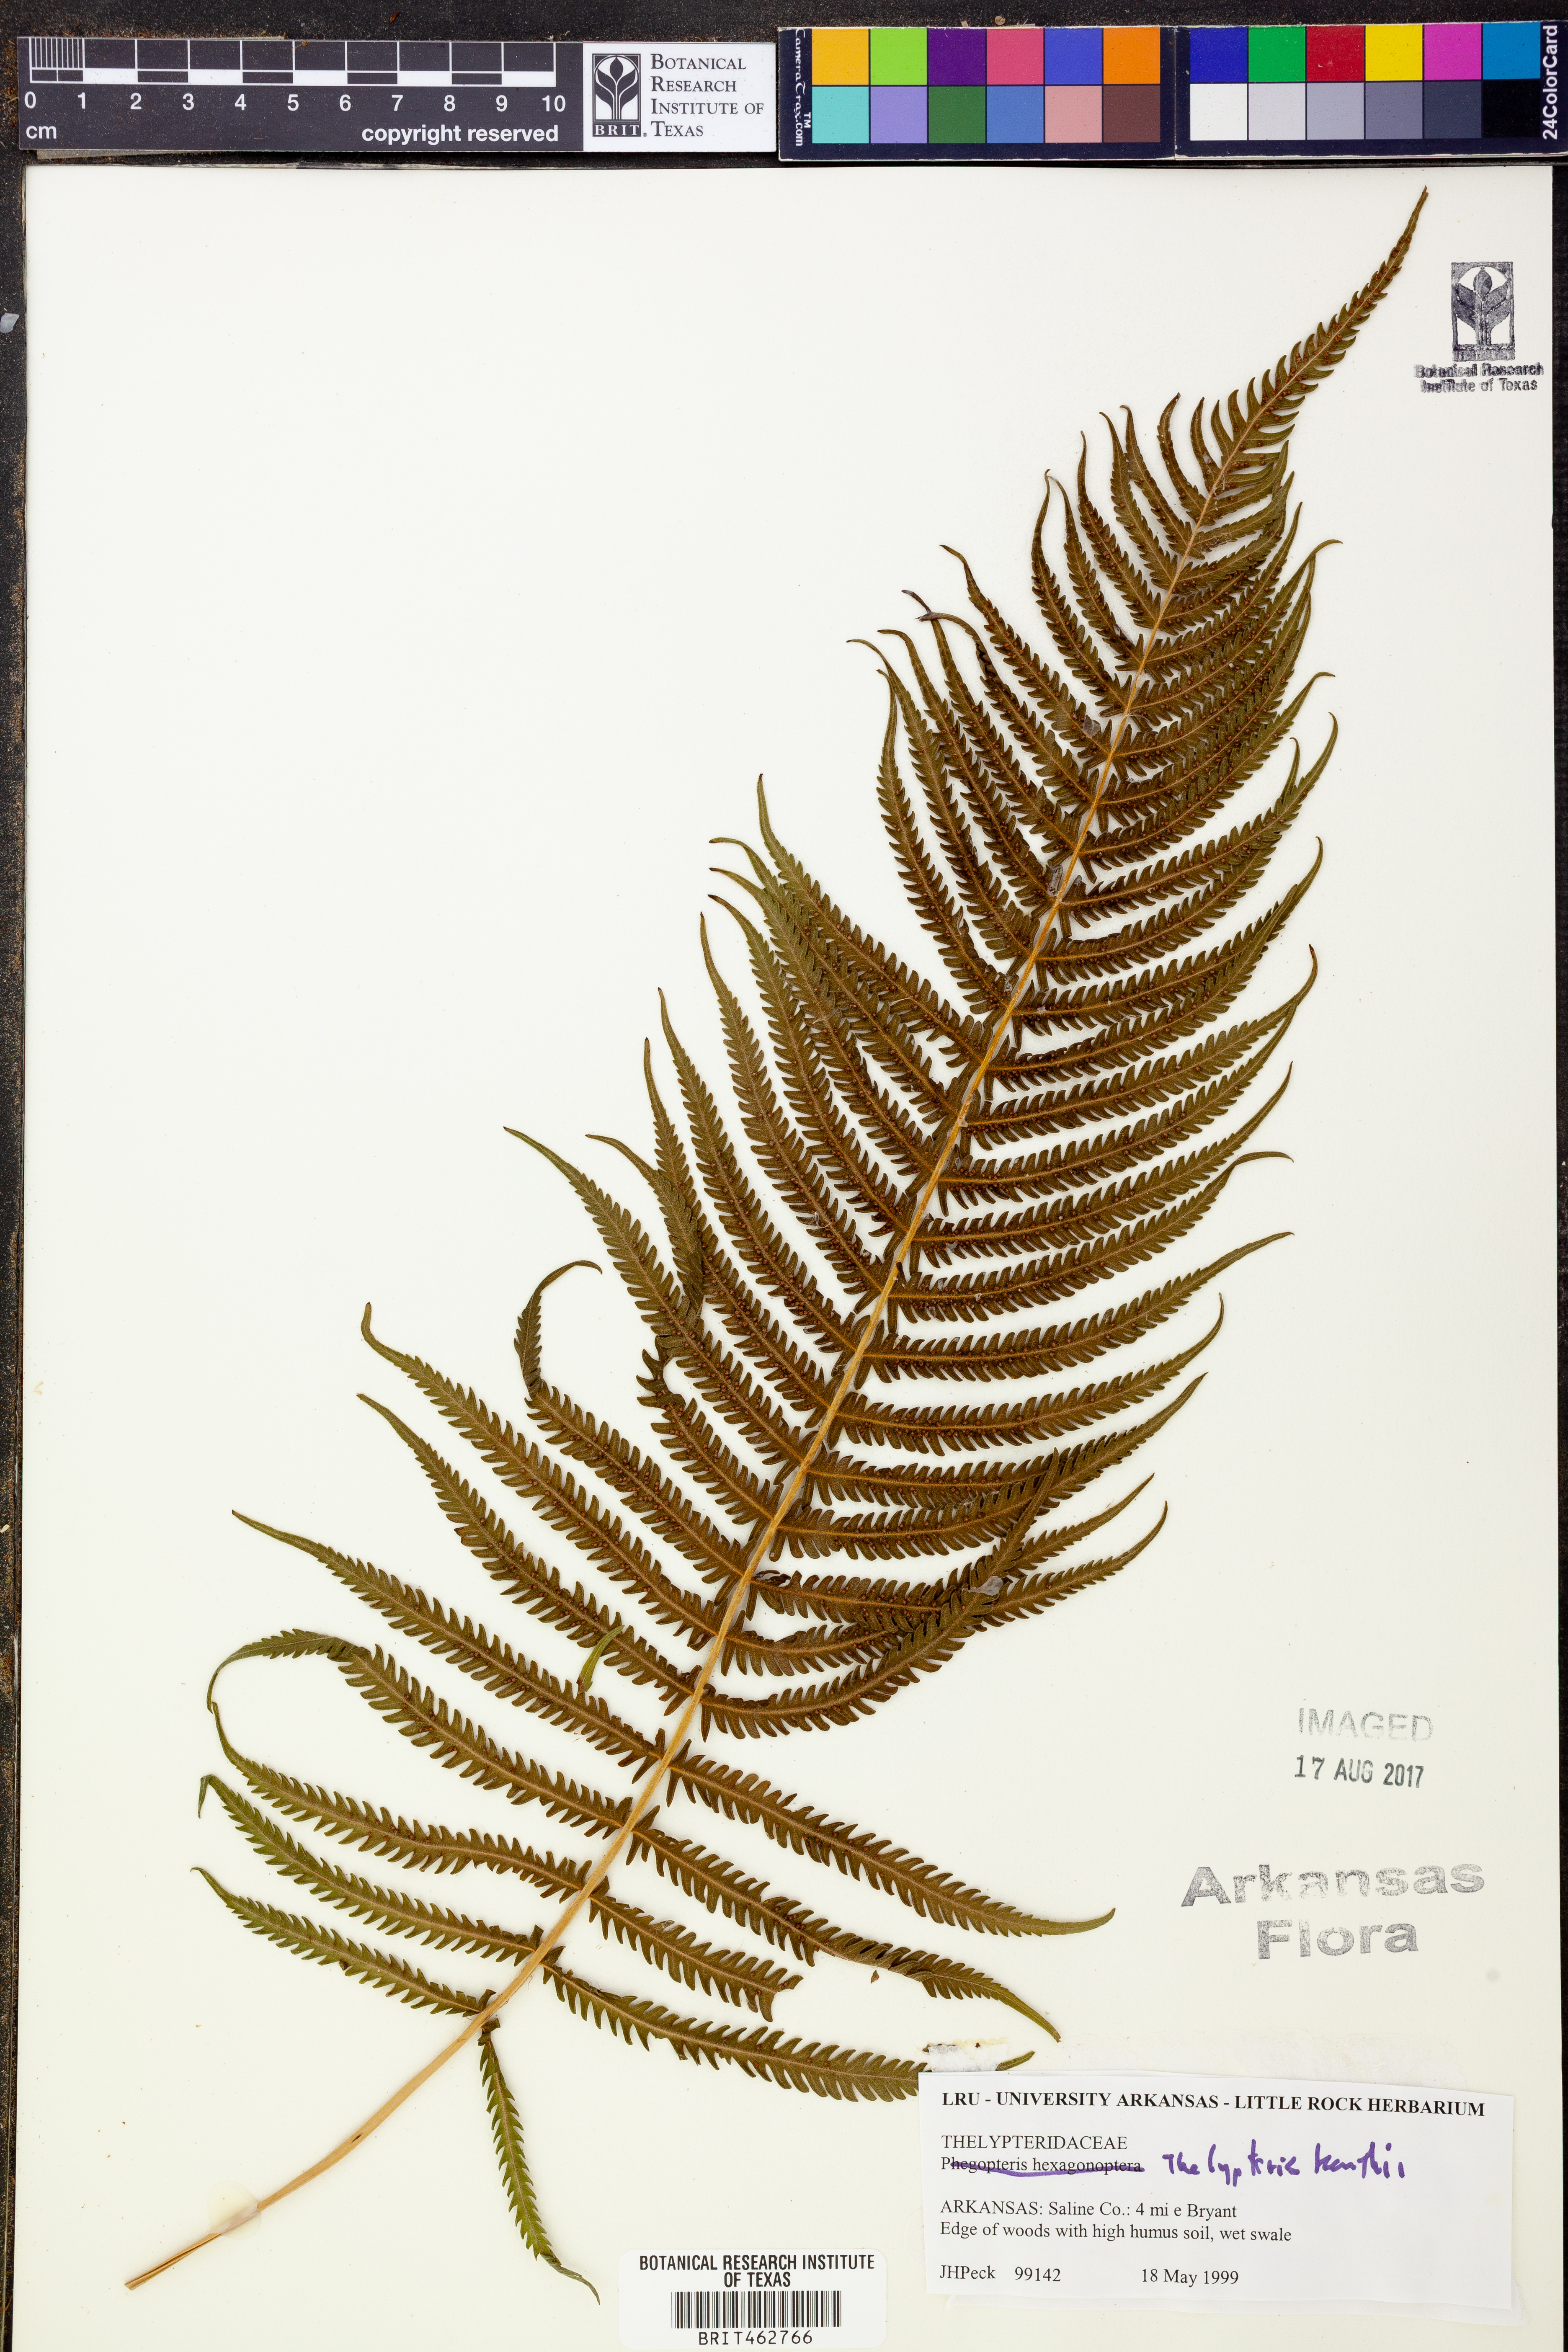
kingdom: Plantae
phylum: Tracheophyta
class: Polypodiopsida
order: Polypodiales
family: Thelypteridaceae
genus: Pelazoneuron
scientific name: Pelazoneuron kunthii
